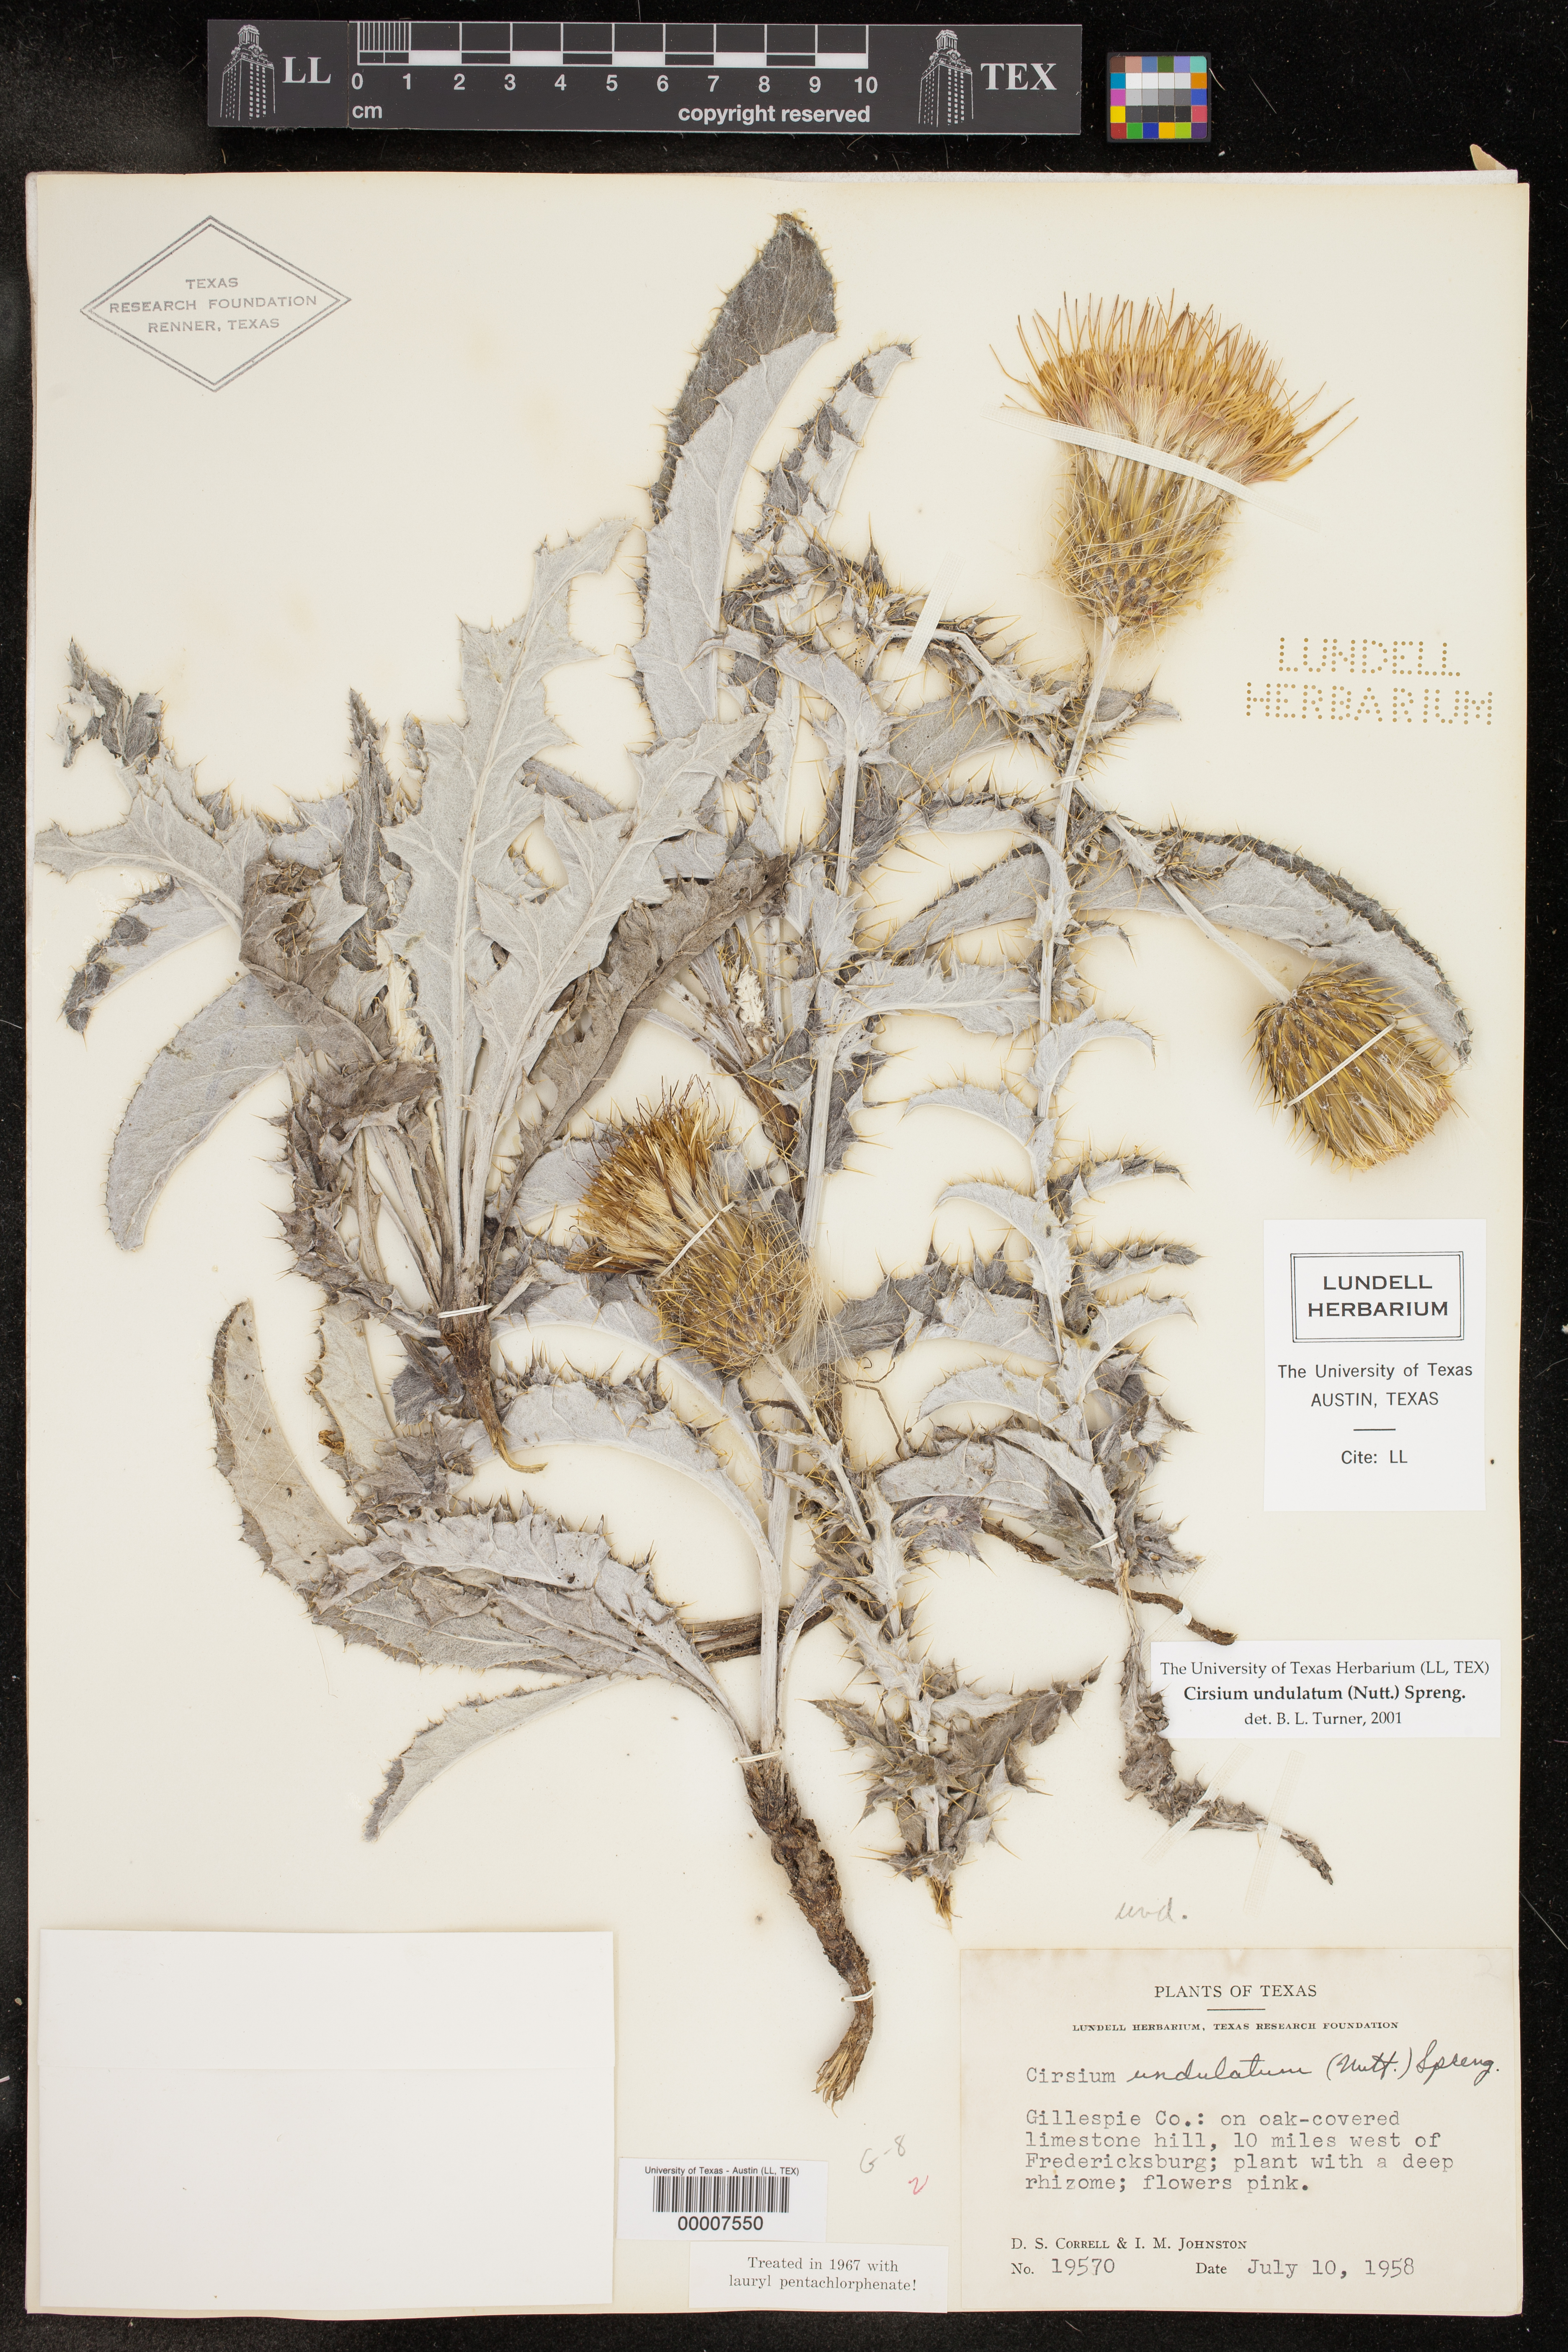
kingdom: Plantae
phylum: Tracheophyta
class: Magnoliopsida
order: Asterales
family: Asteraceae
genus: Cirsium
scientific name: Cirsium undulatum
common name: Pasture thistle
